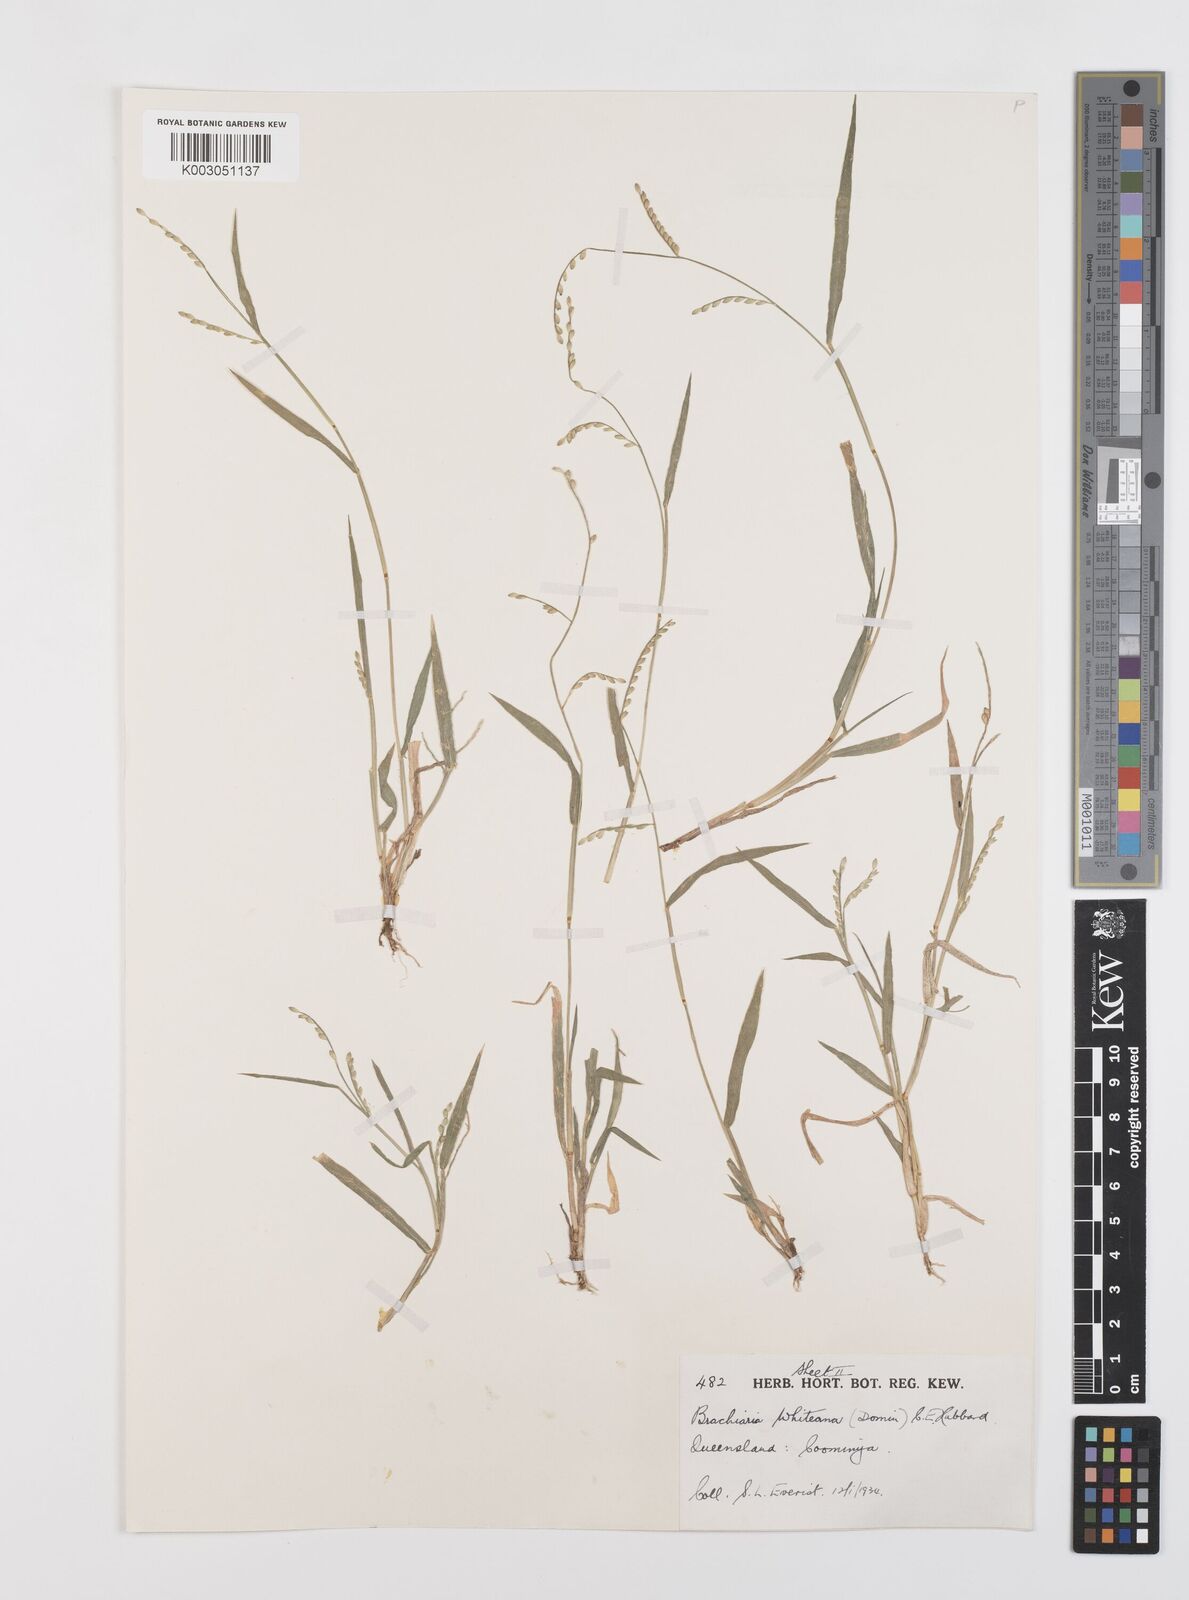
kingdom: Plantae
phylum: Tracheophyta
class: Liliopsida
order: Poales
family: Poaceae
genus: Urochloa
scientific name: Urochloa whiteana
